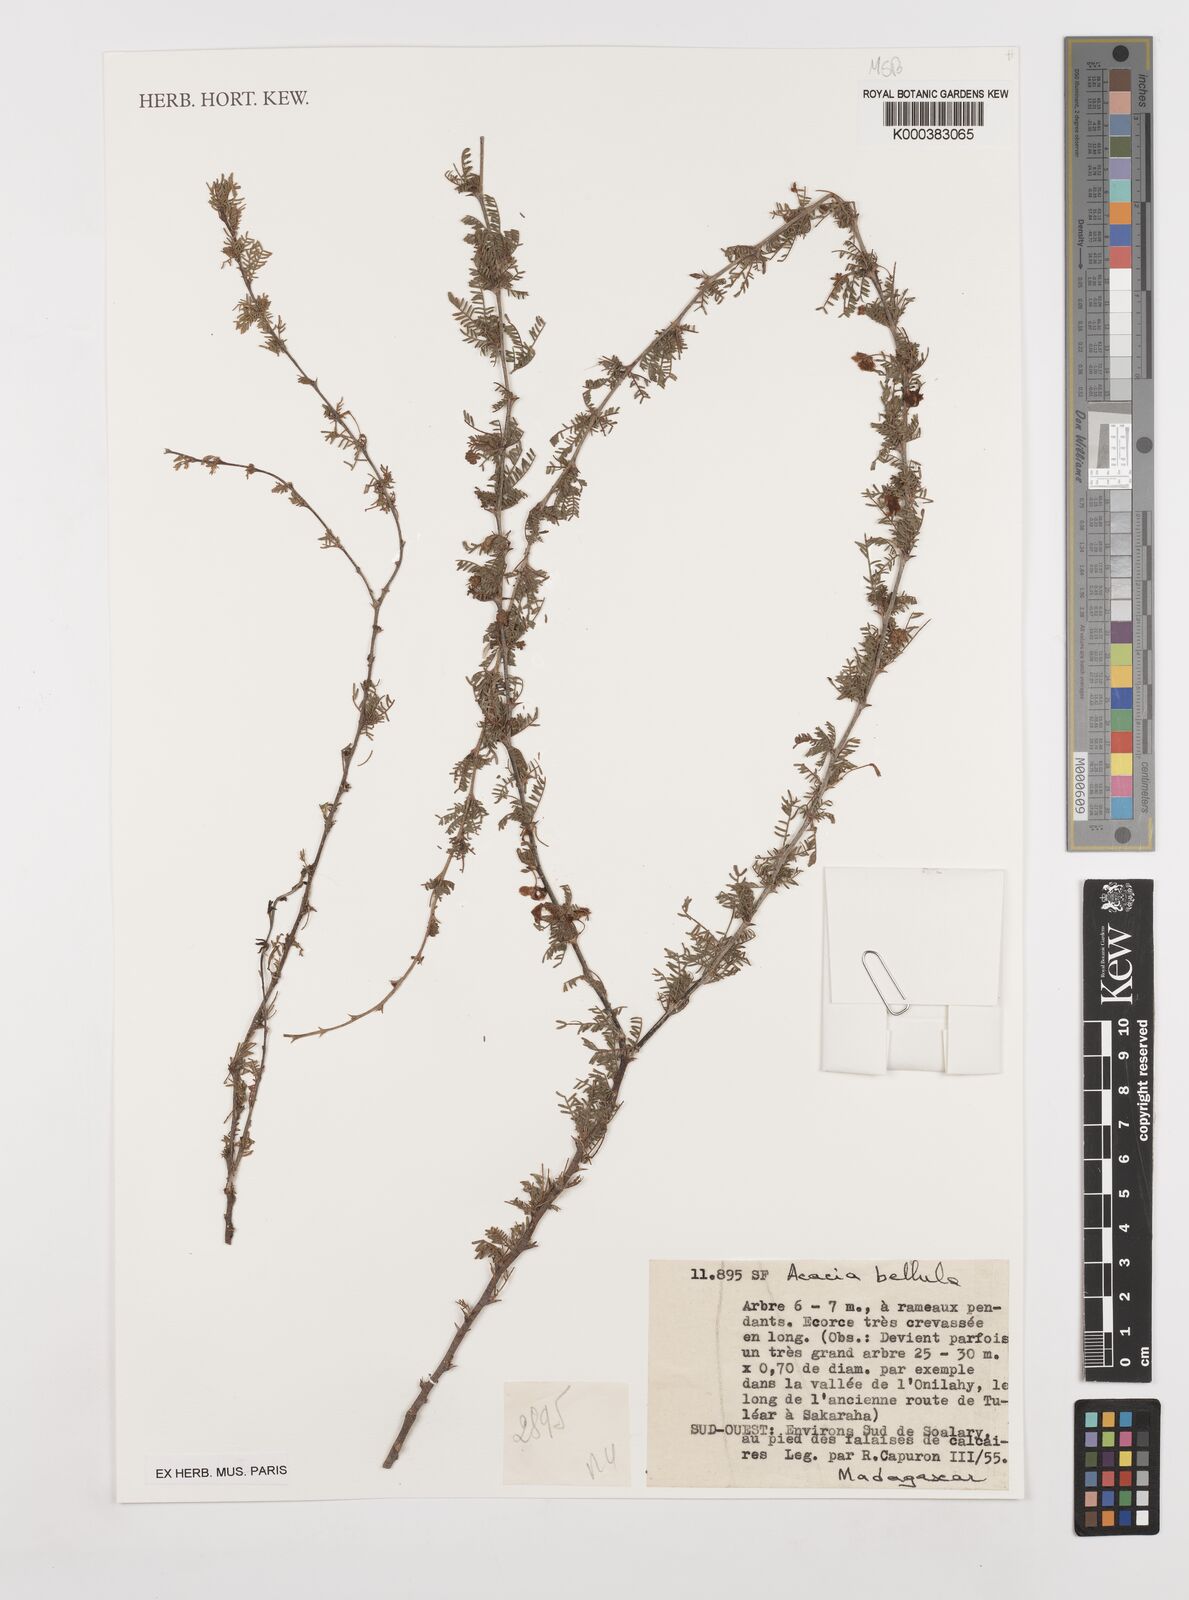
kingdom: Plantae
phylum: Tracheophyta
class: Magnoliopsida
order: Fabales
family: Fabaceae
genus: Vachellia
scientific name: Vachellia bellula
